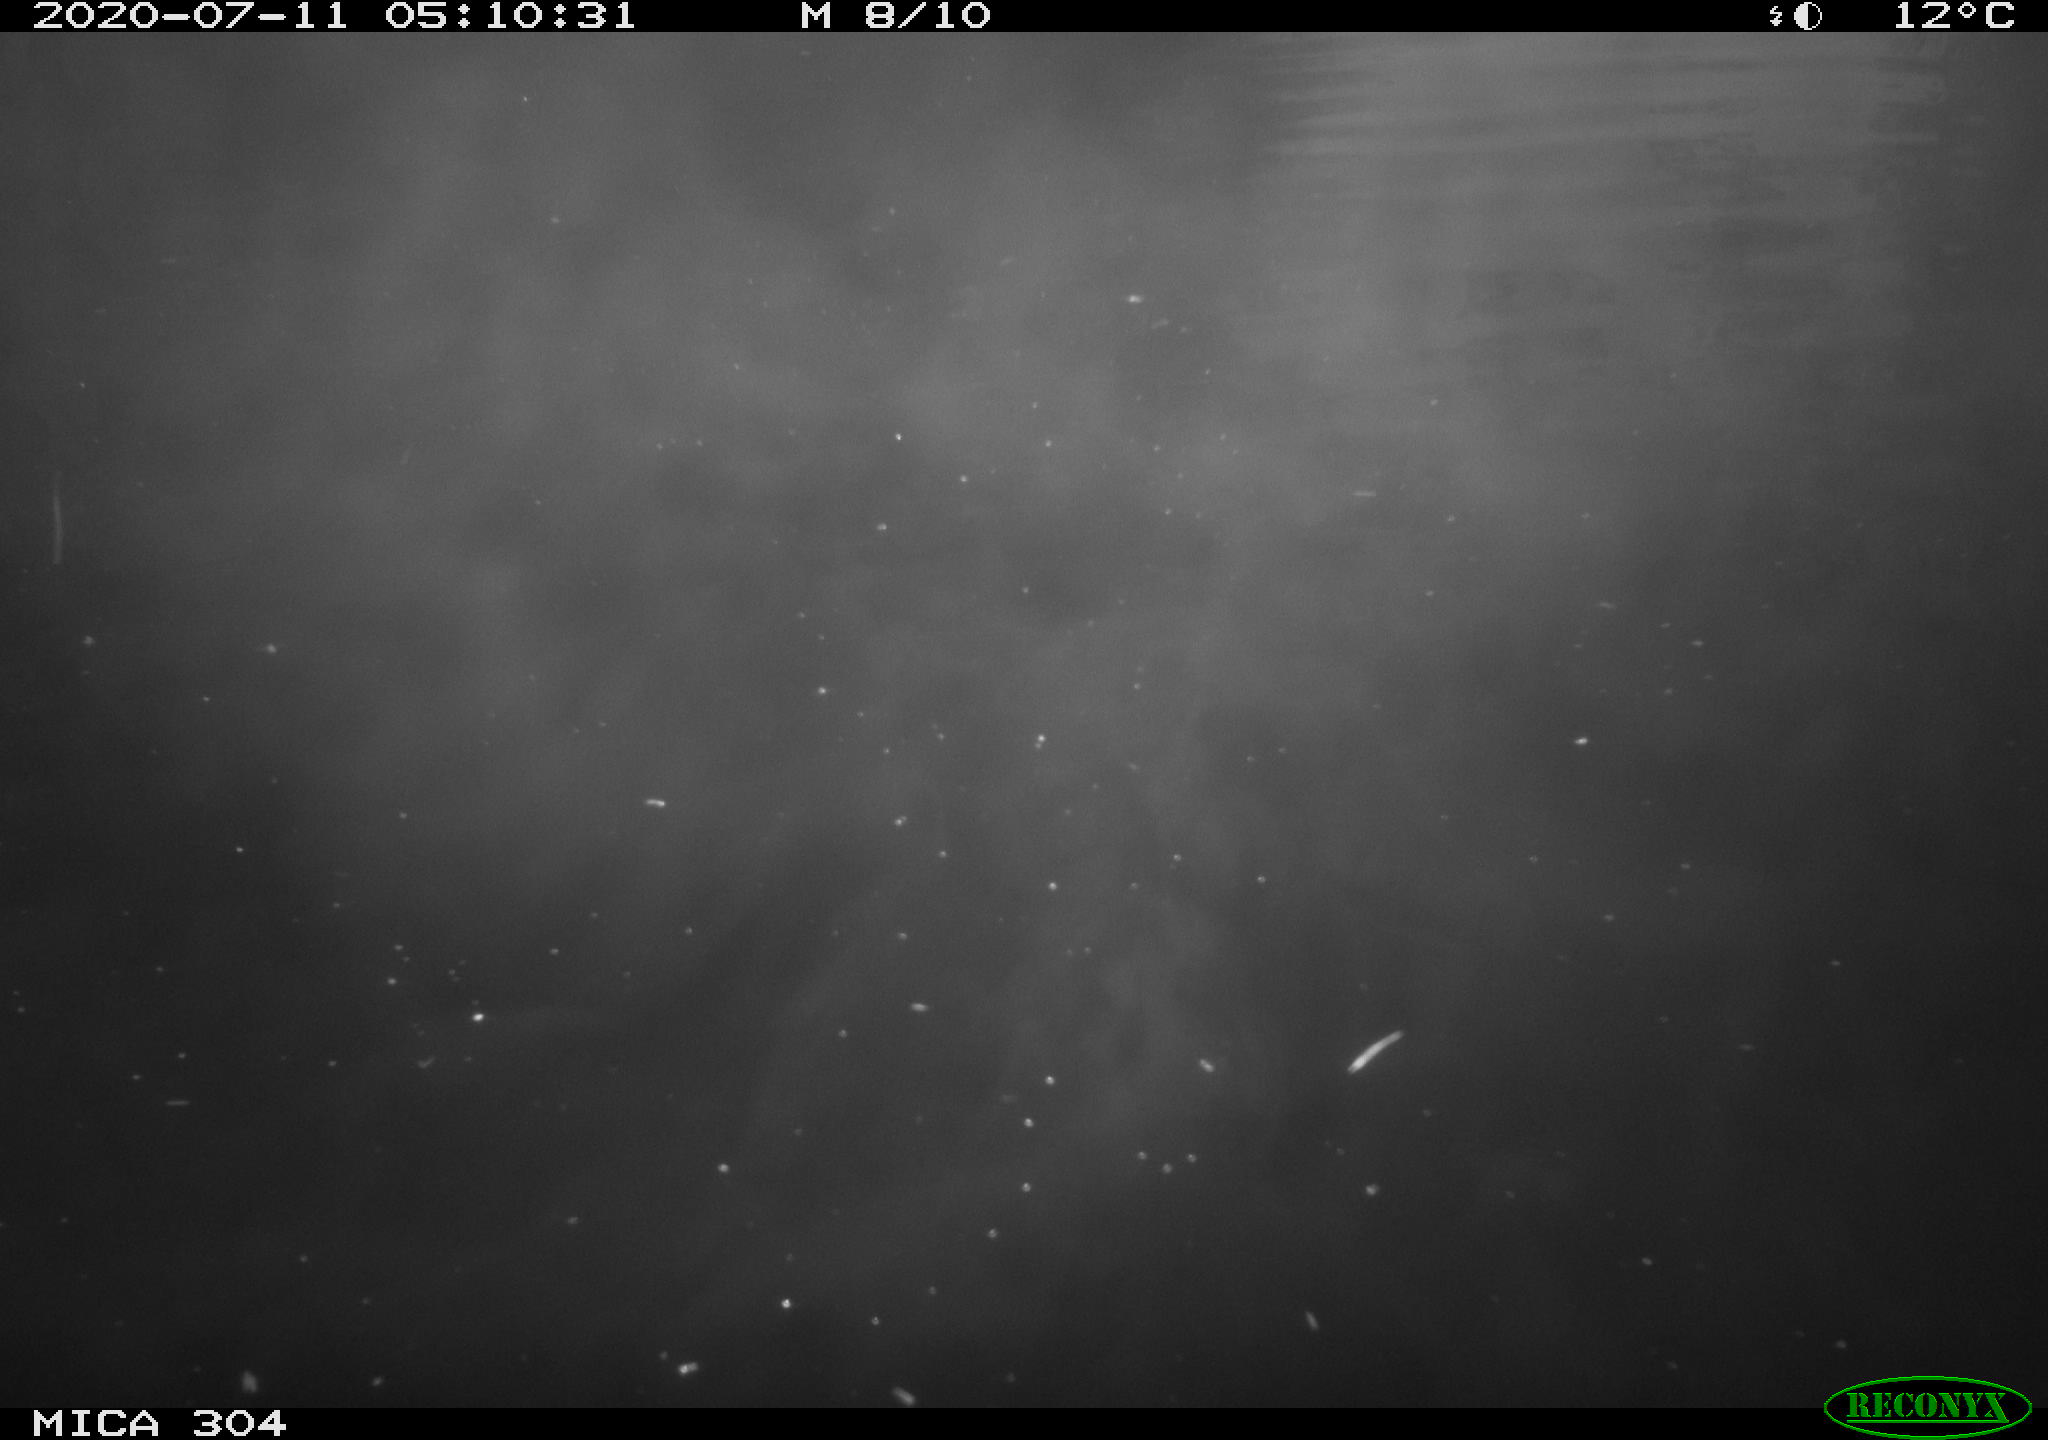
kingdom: Animalia
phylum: Chordata
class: Mammalia
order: Rodentia
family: Cricetidae
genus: Ondatra
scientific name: Ondatra zibethicus
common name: Muskrat
